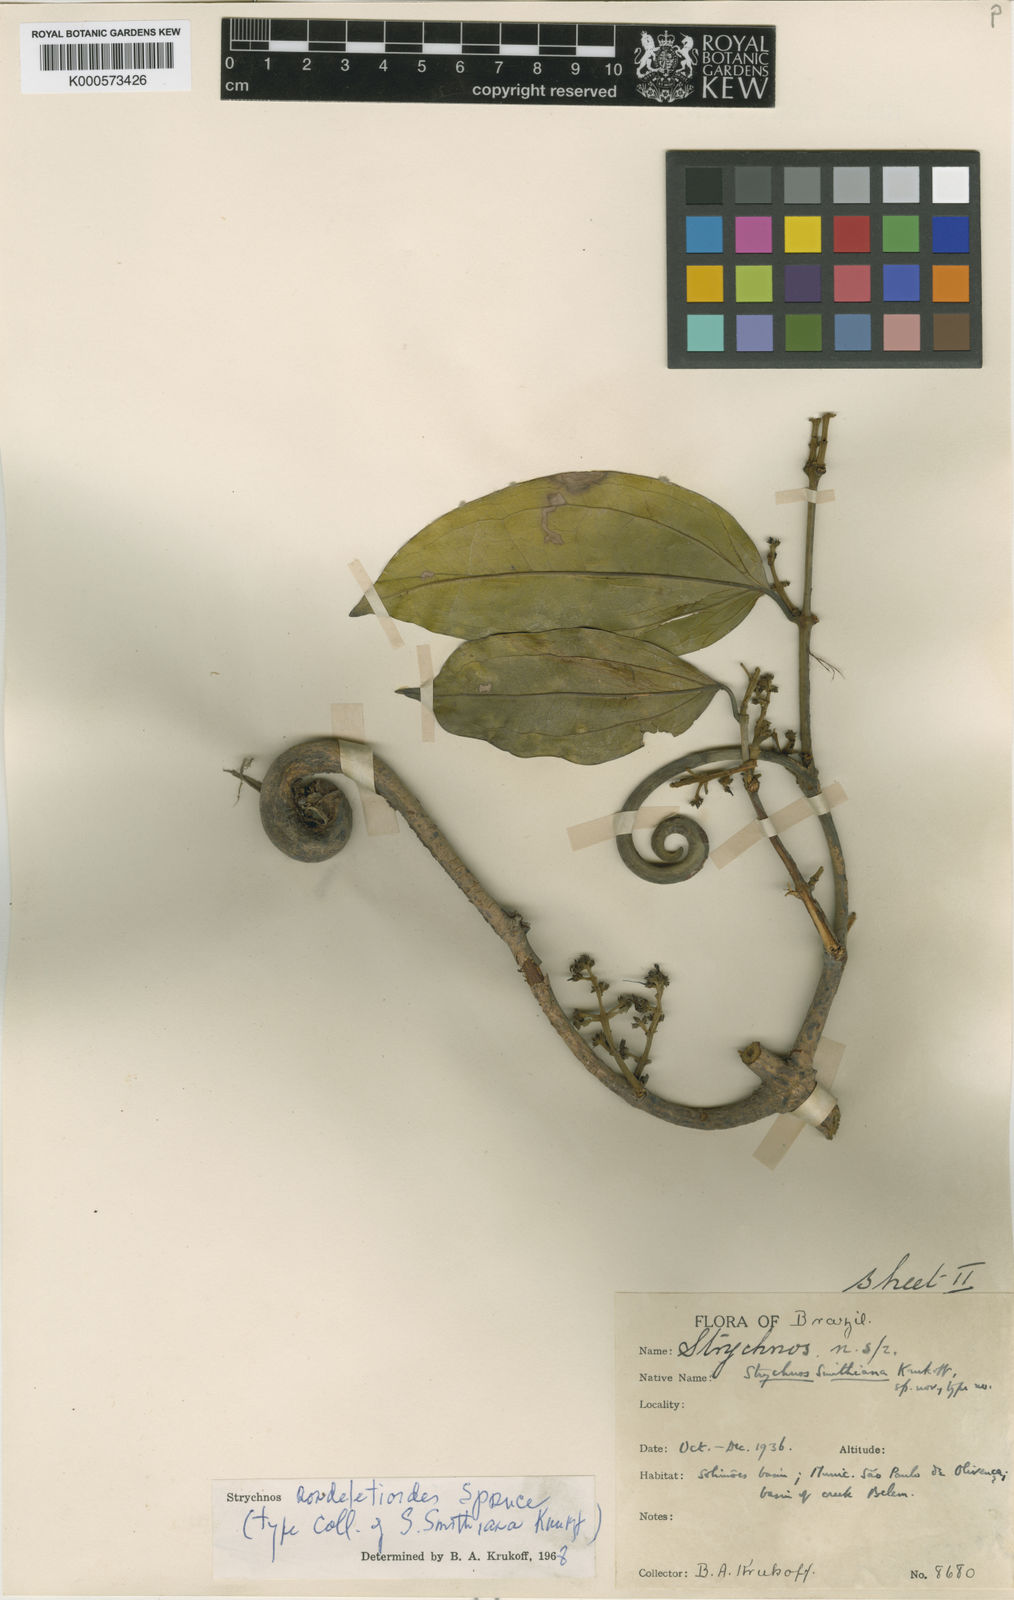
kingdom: Plantae
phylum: Tracheophyta
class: Magnoliopsida
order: Gentianales
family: Loganiaceae
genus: Strychnos
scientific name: Strychnos rondeletioides
